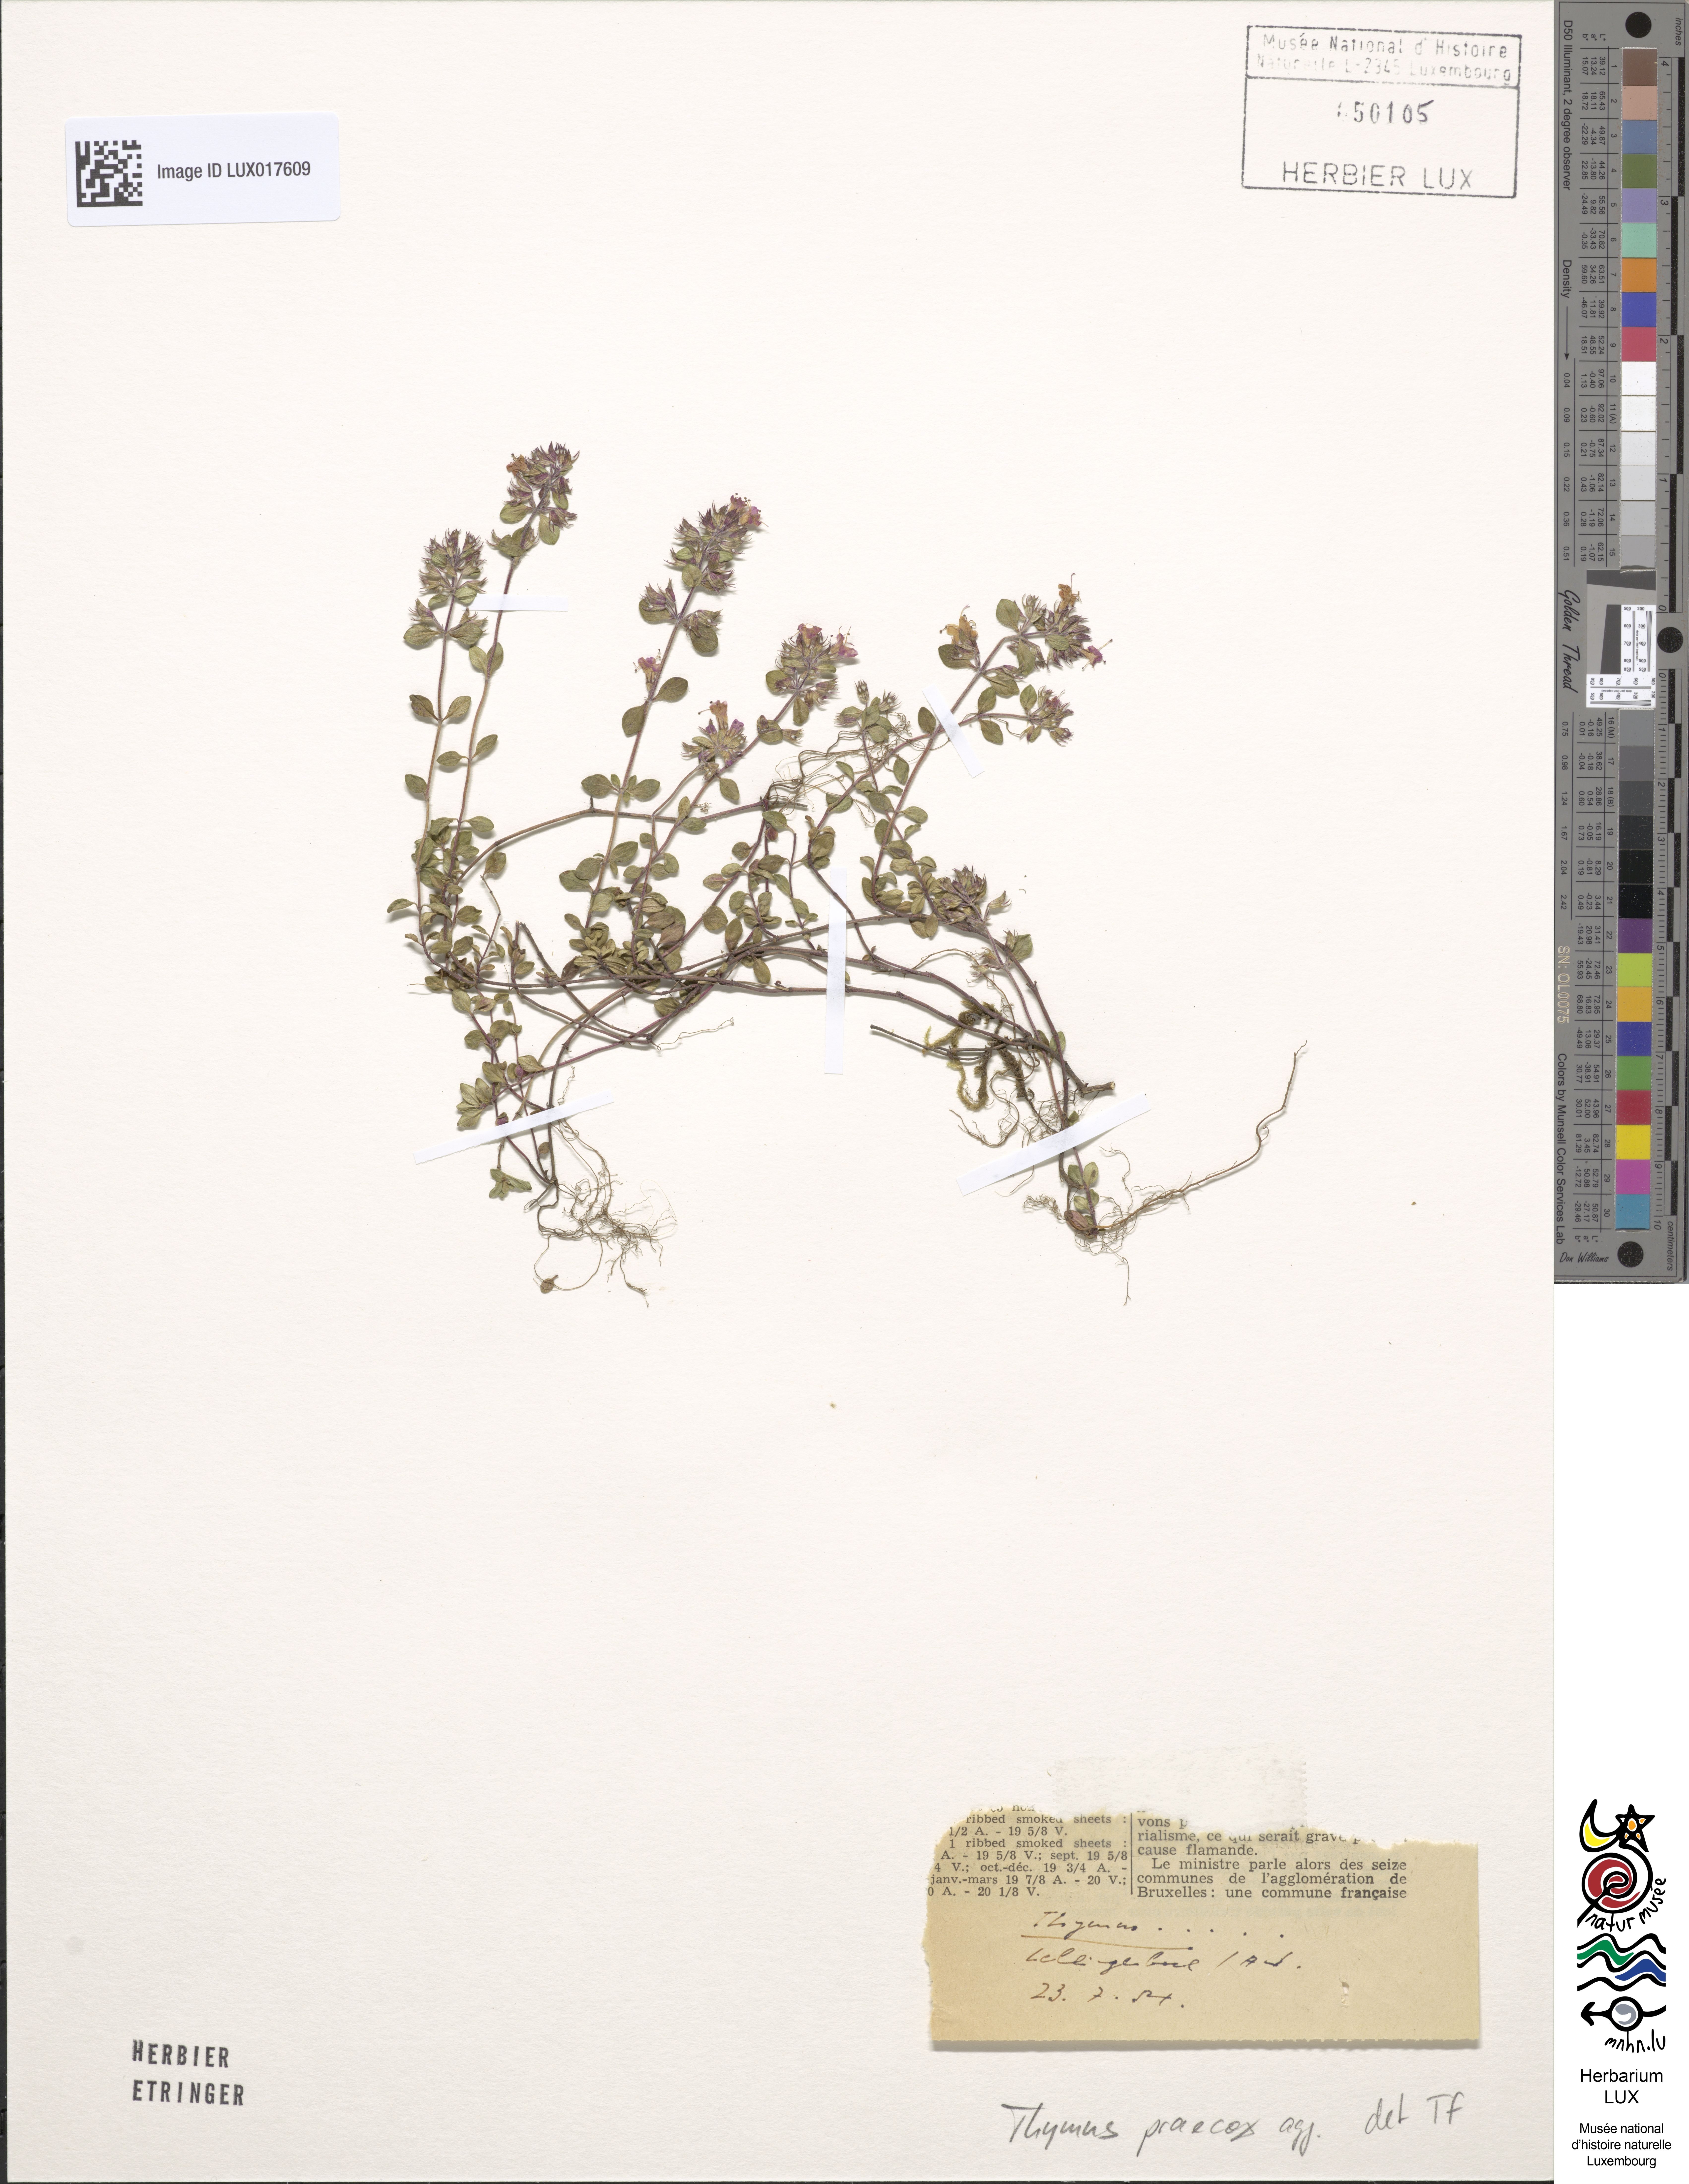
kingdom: Plantae
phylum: Tracheophyta
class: Magnoliopsida
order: Lamiales
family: Lamiaceae
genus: Thymus
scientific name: Thymus praecox
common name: Wild thyme
